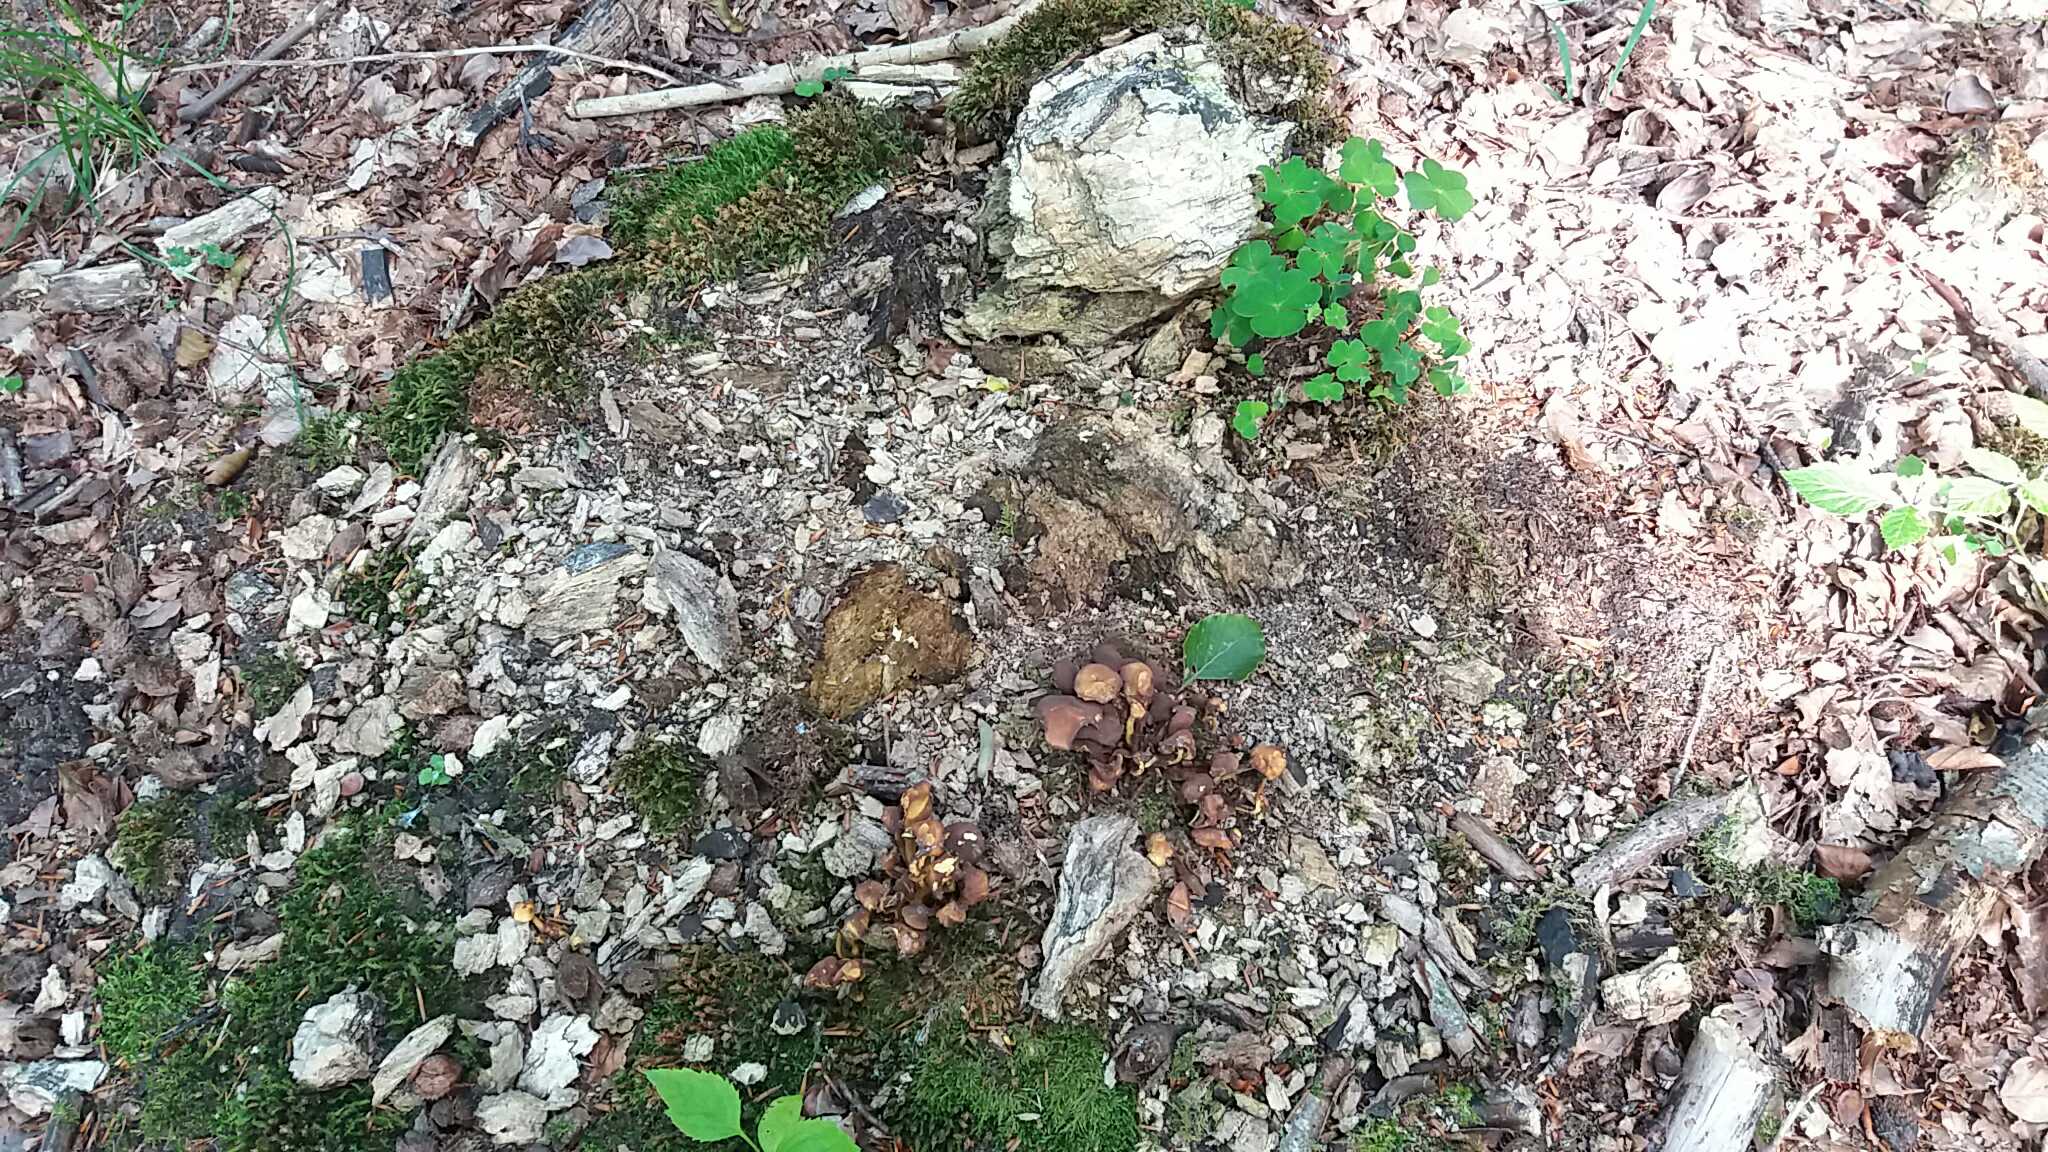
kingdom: Fungi
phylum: Basidiomycota
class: Agaricomycetes
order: Agaricales
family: Strophariaceae
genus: Hypholoma
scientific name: Hypholoma fasciculare
